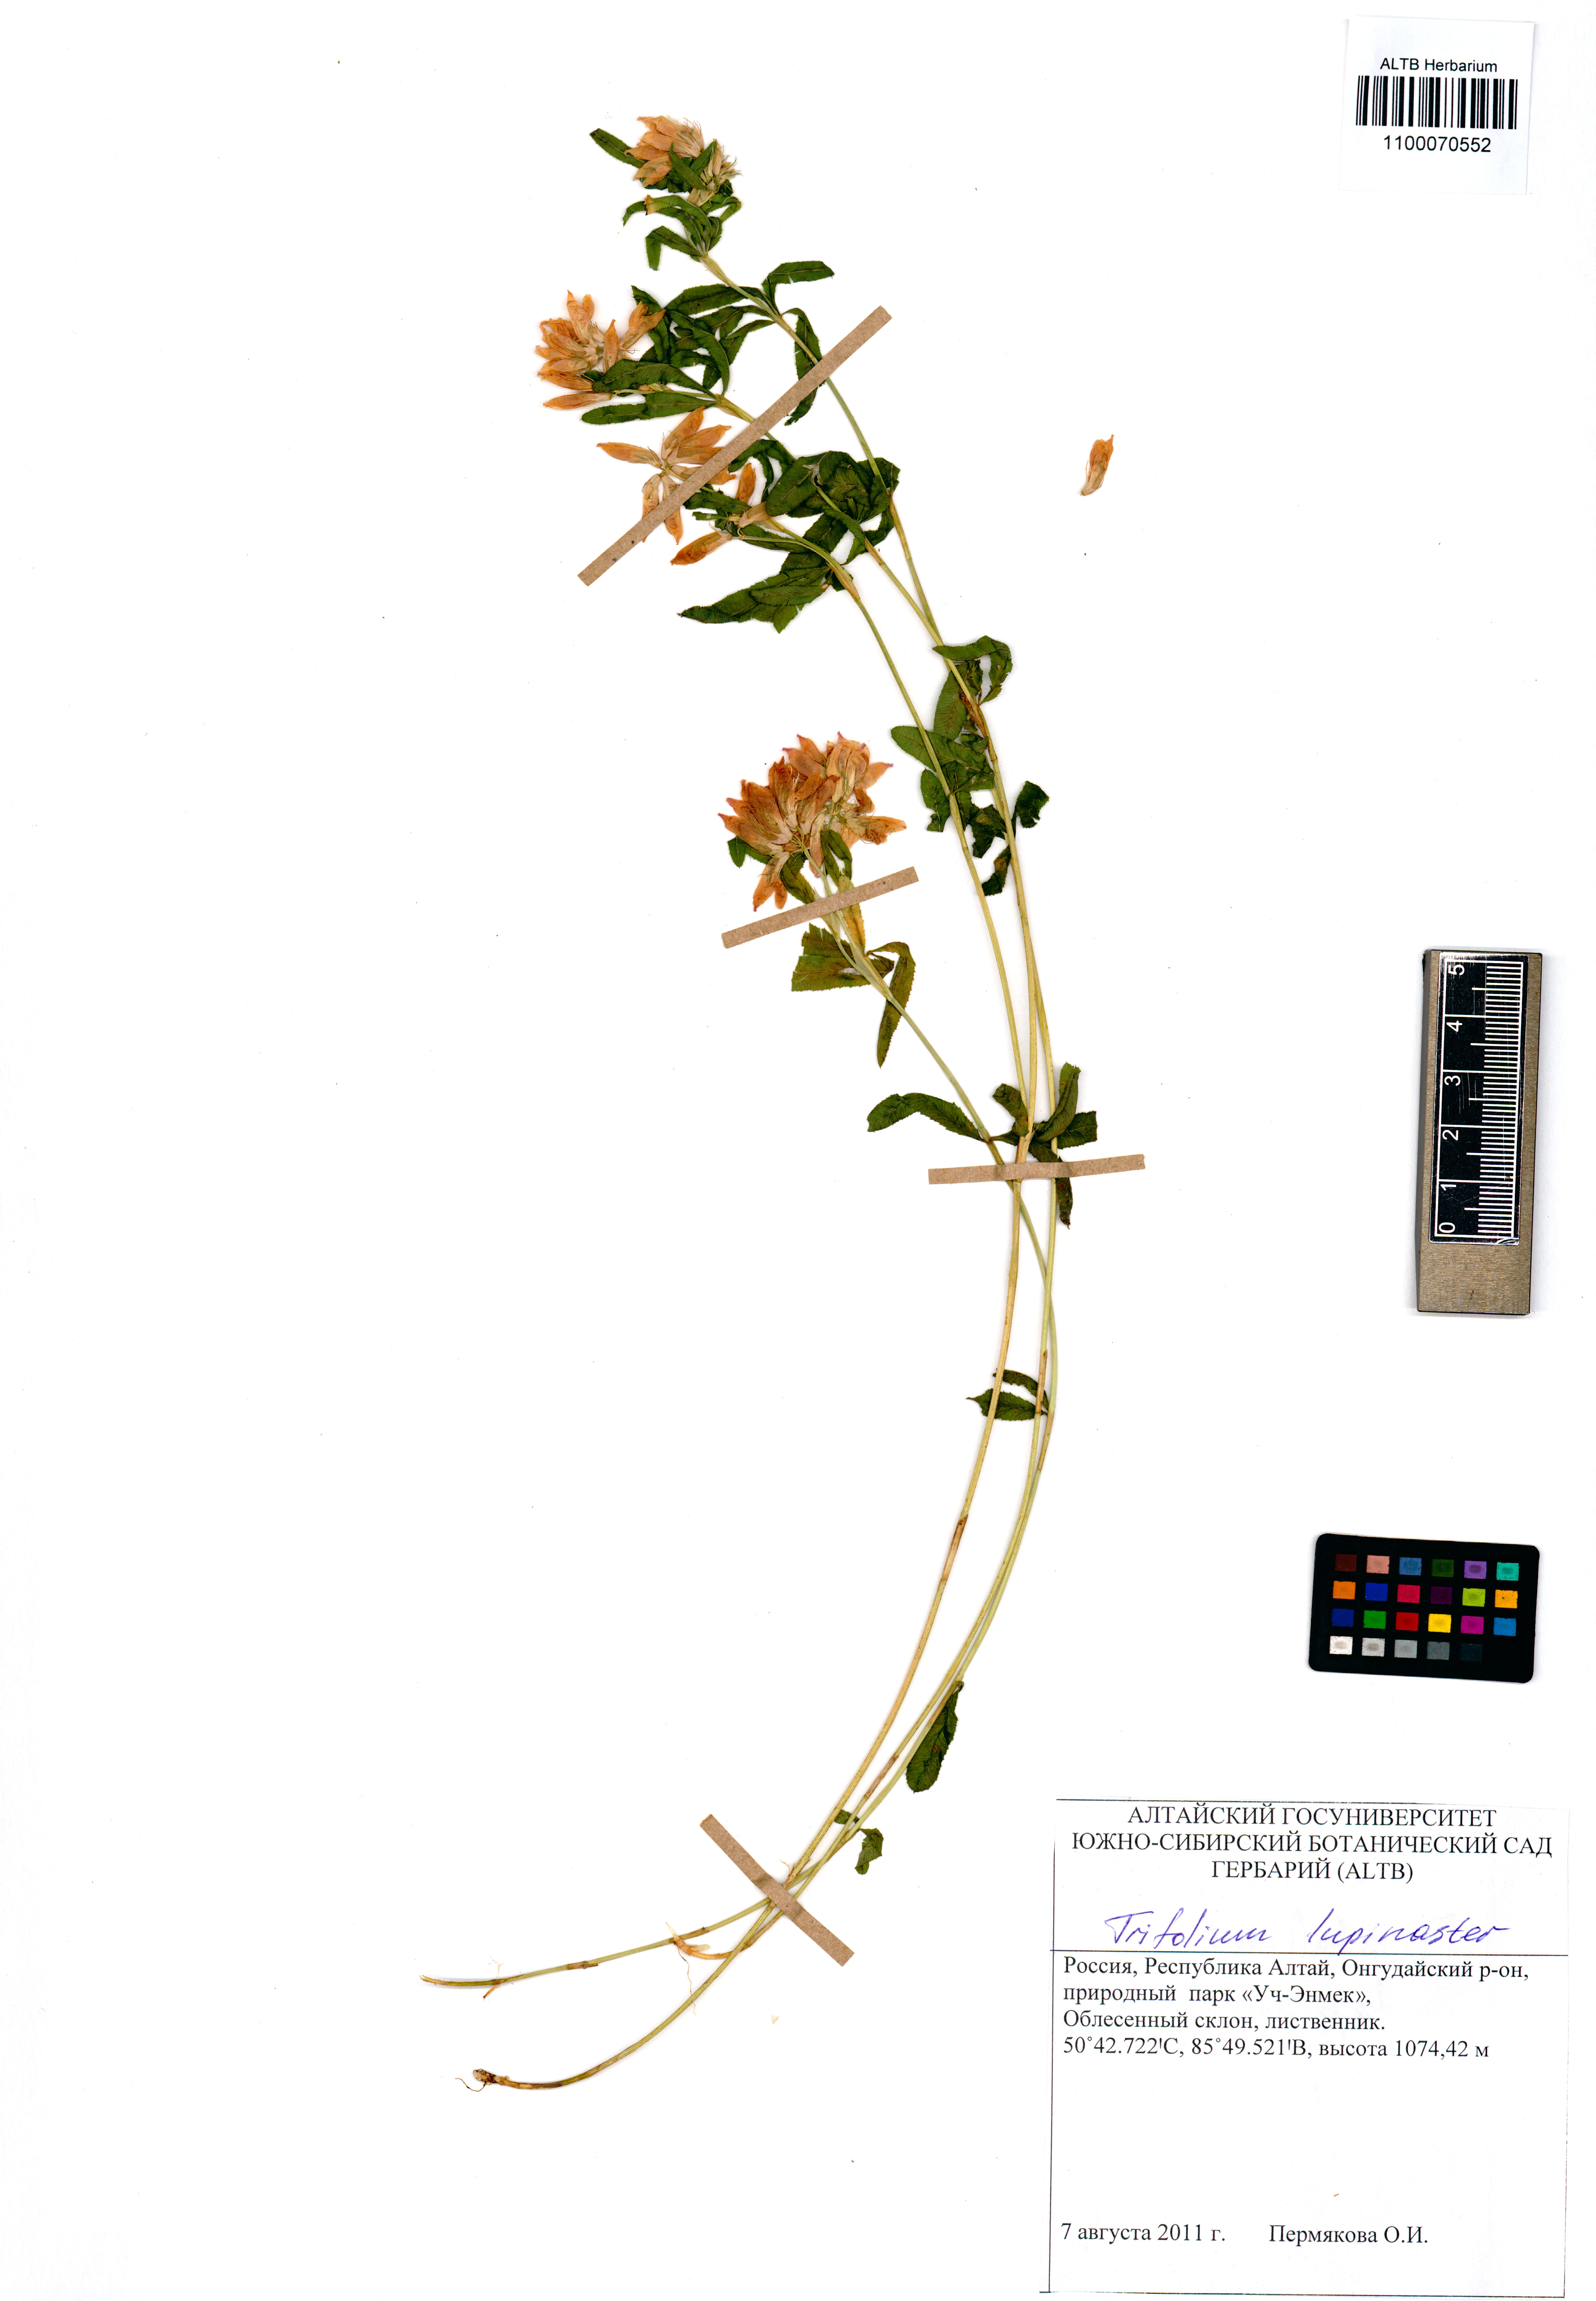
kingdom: Plantae
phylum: Tracheophyta
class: Magnoliopsida
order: Fabales
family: Fabaceae
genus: Trifolium
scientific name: Trifolium lupinaster
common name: Lupine clover
